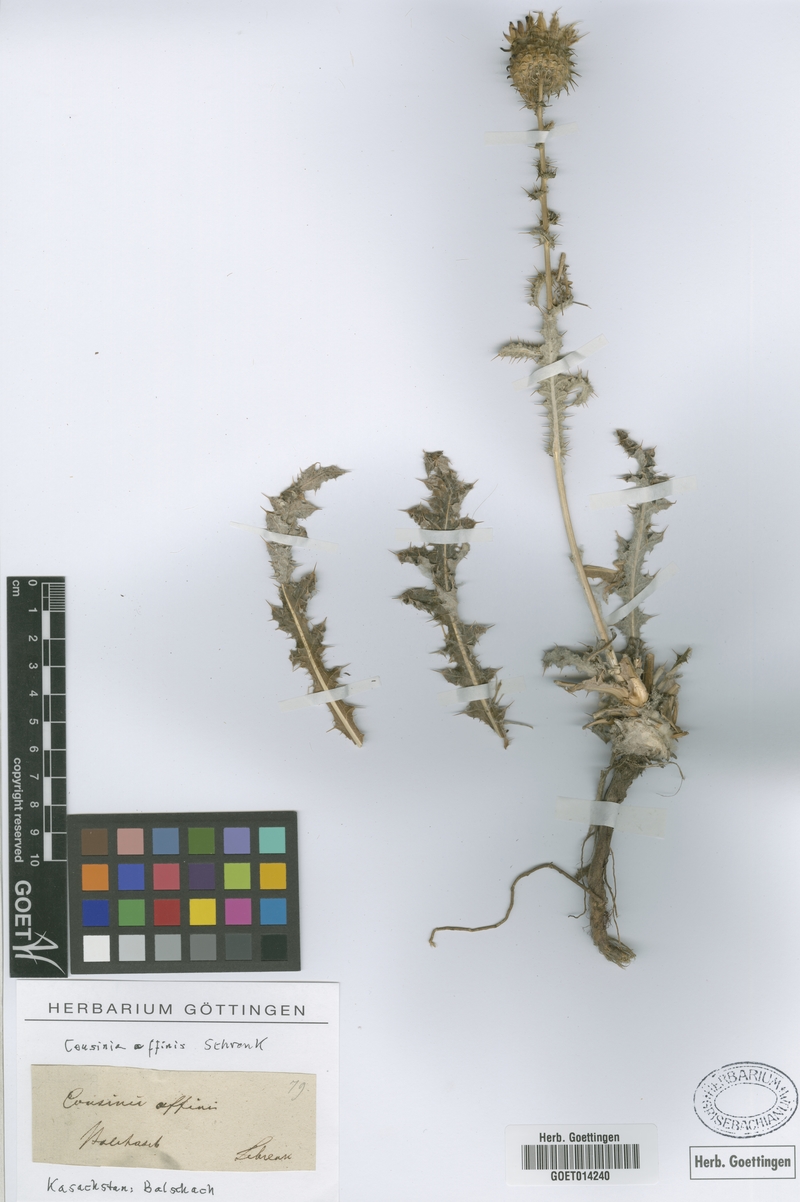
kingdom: Plantae
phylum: Tracheophyta
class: Magnoliopsida
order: Asterales
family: Asteraceae
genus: Cousinia
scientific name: Cousinia affinis
